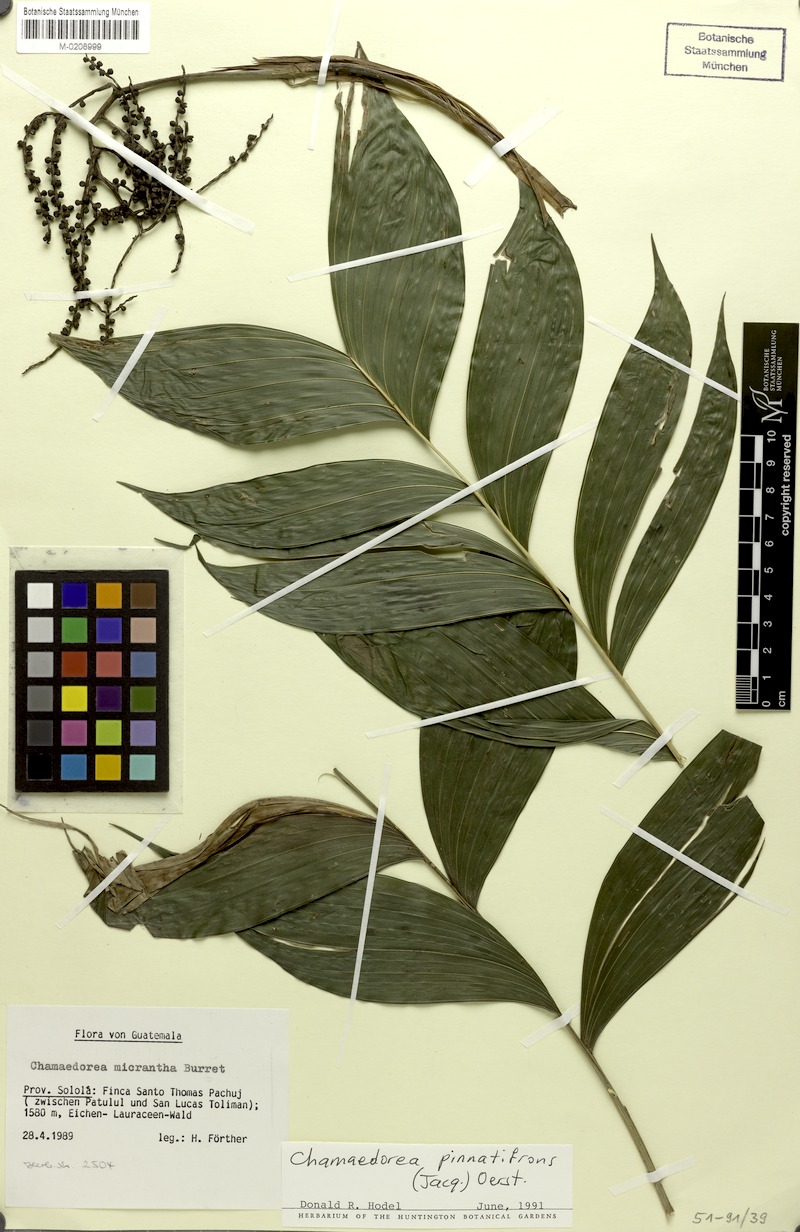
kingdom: Plantae
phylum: Tracheophyta
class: Liliopsida
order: Arecales
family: Arecaceae
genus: Chamaedorea
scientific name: Chamaedorea pinnatifrons
